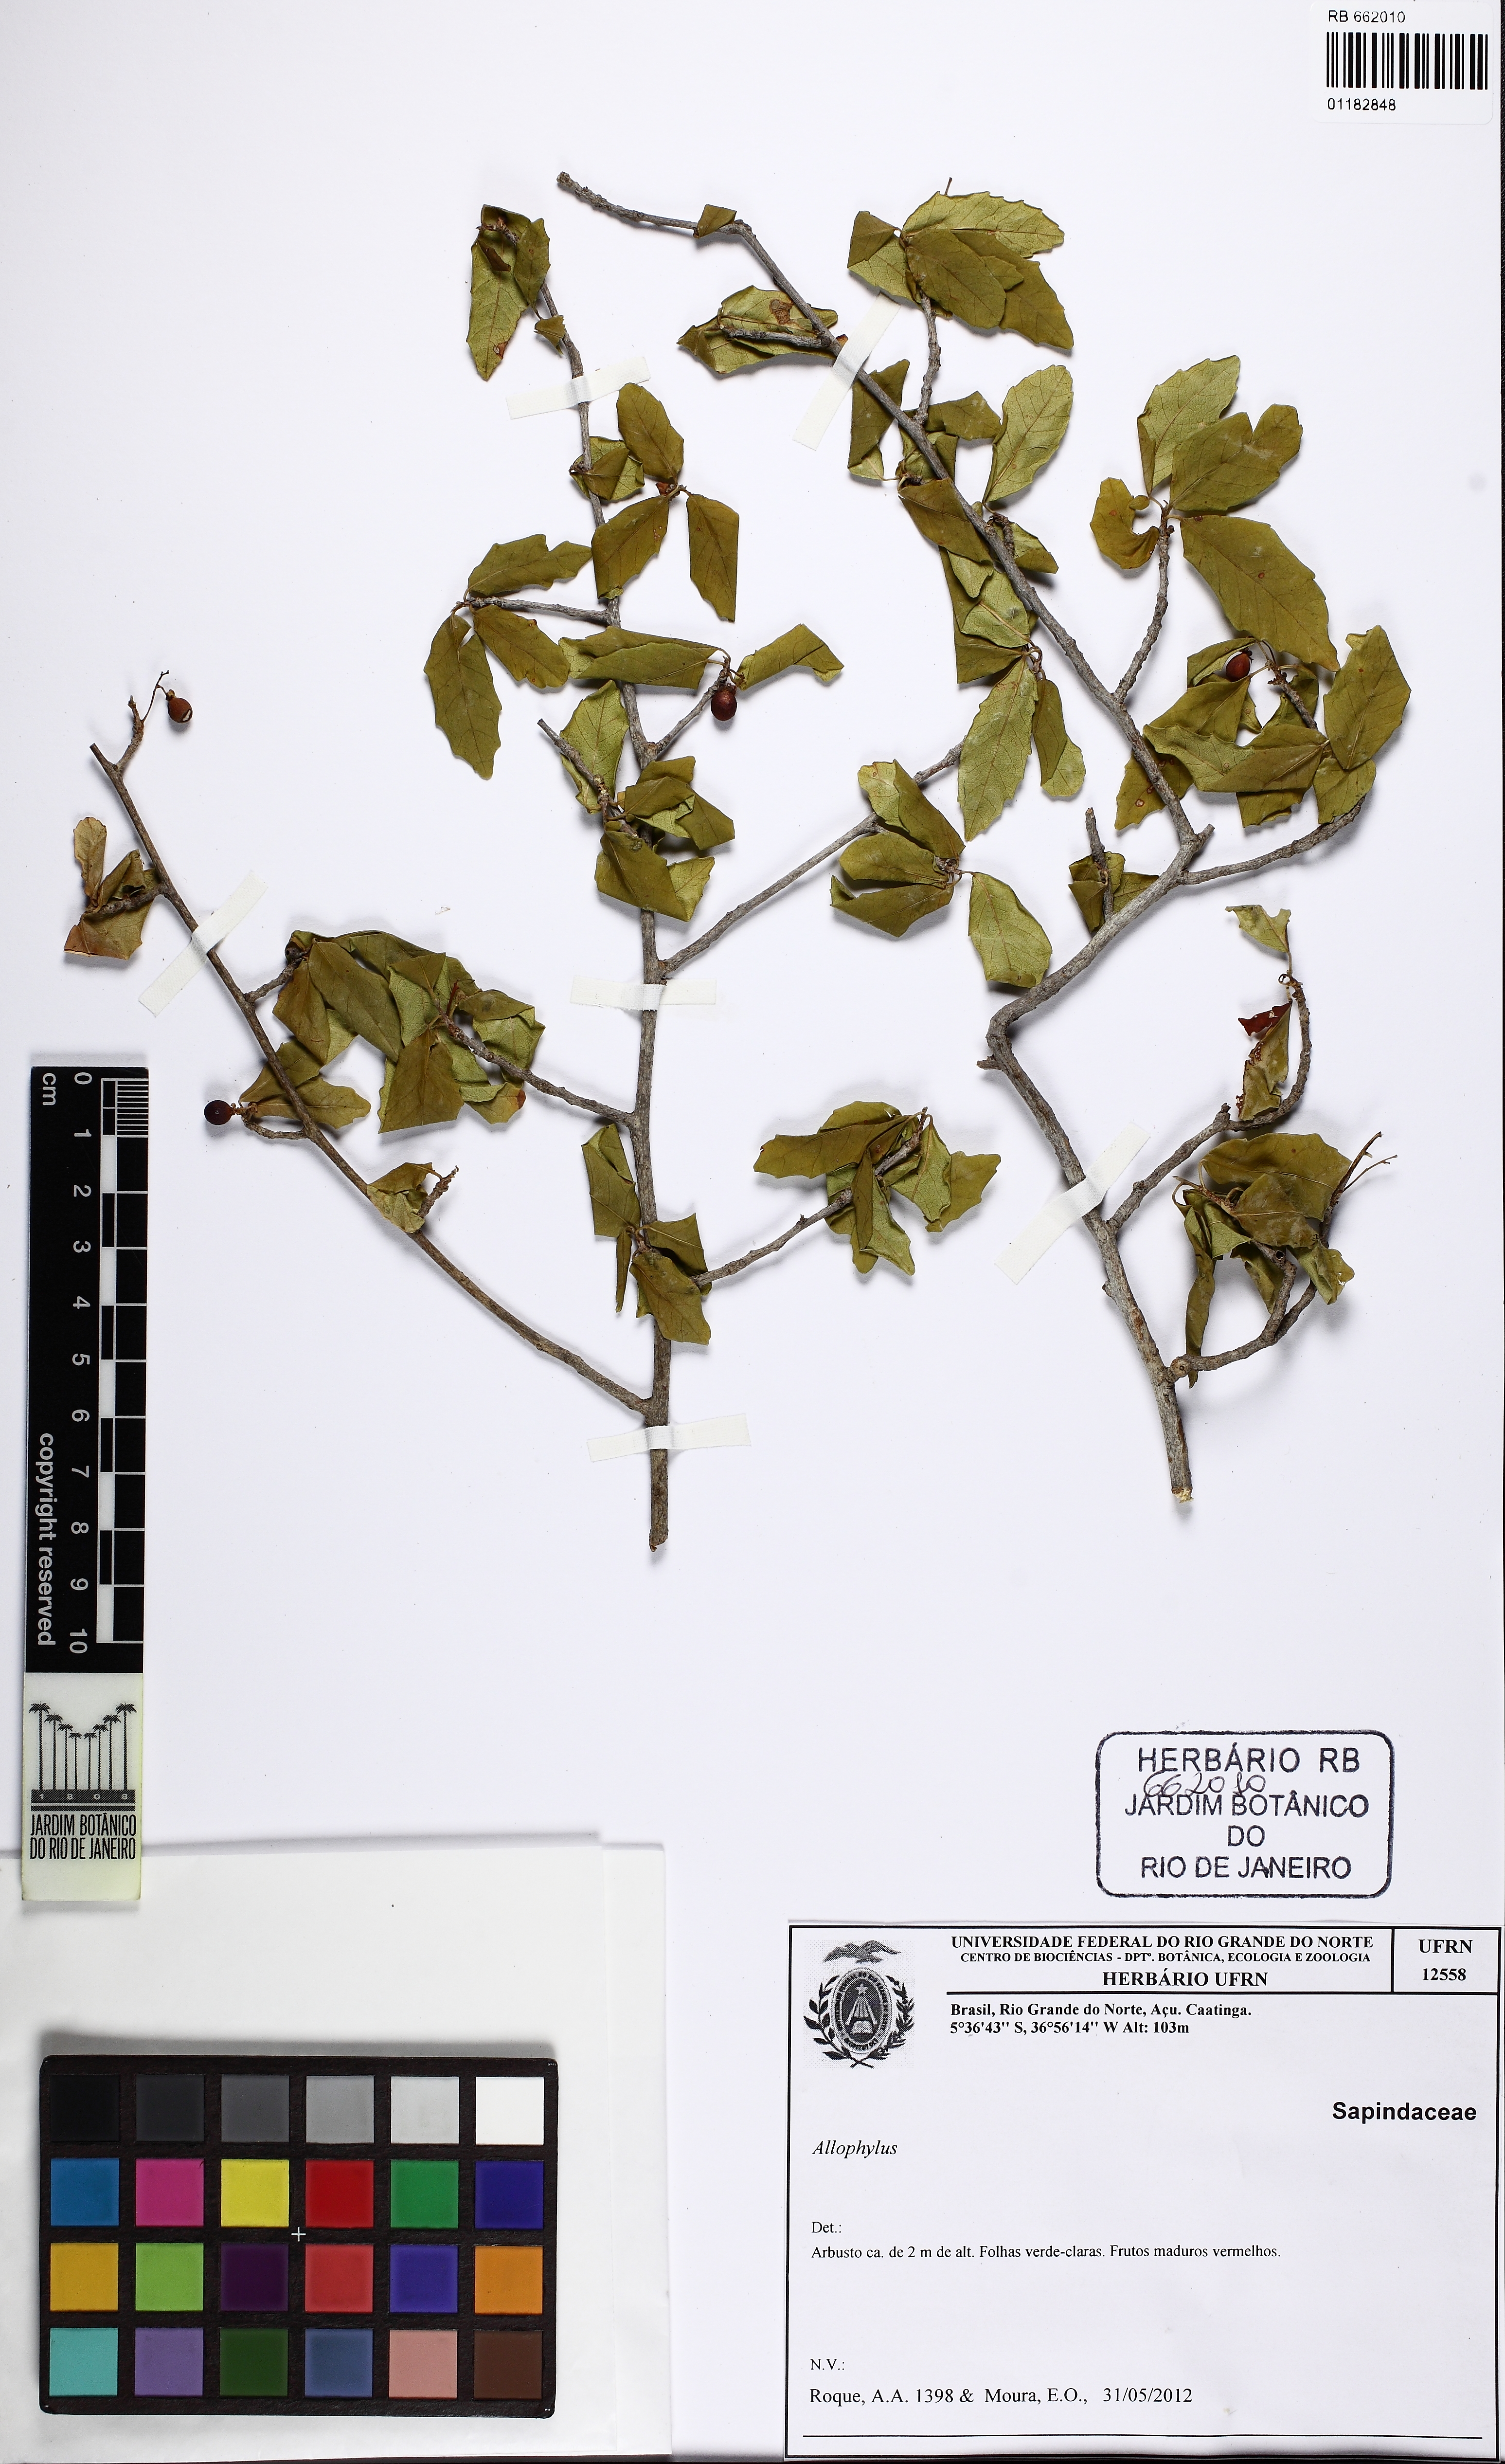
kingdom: Plantae
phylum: Tracheophyta
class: Magnoliopsida
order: Sapindales
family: Sapindaceae
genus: Allophylus
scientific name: Allophylus
